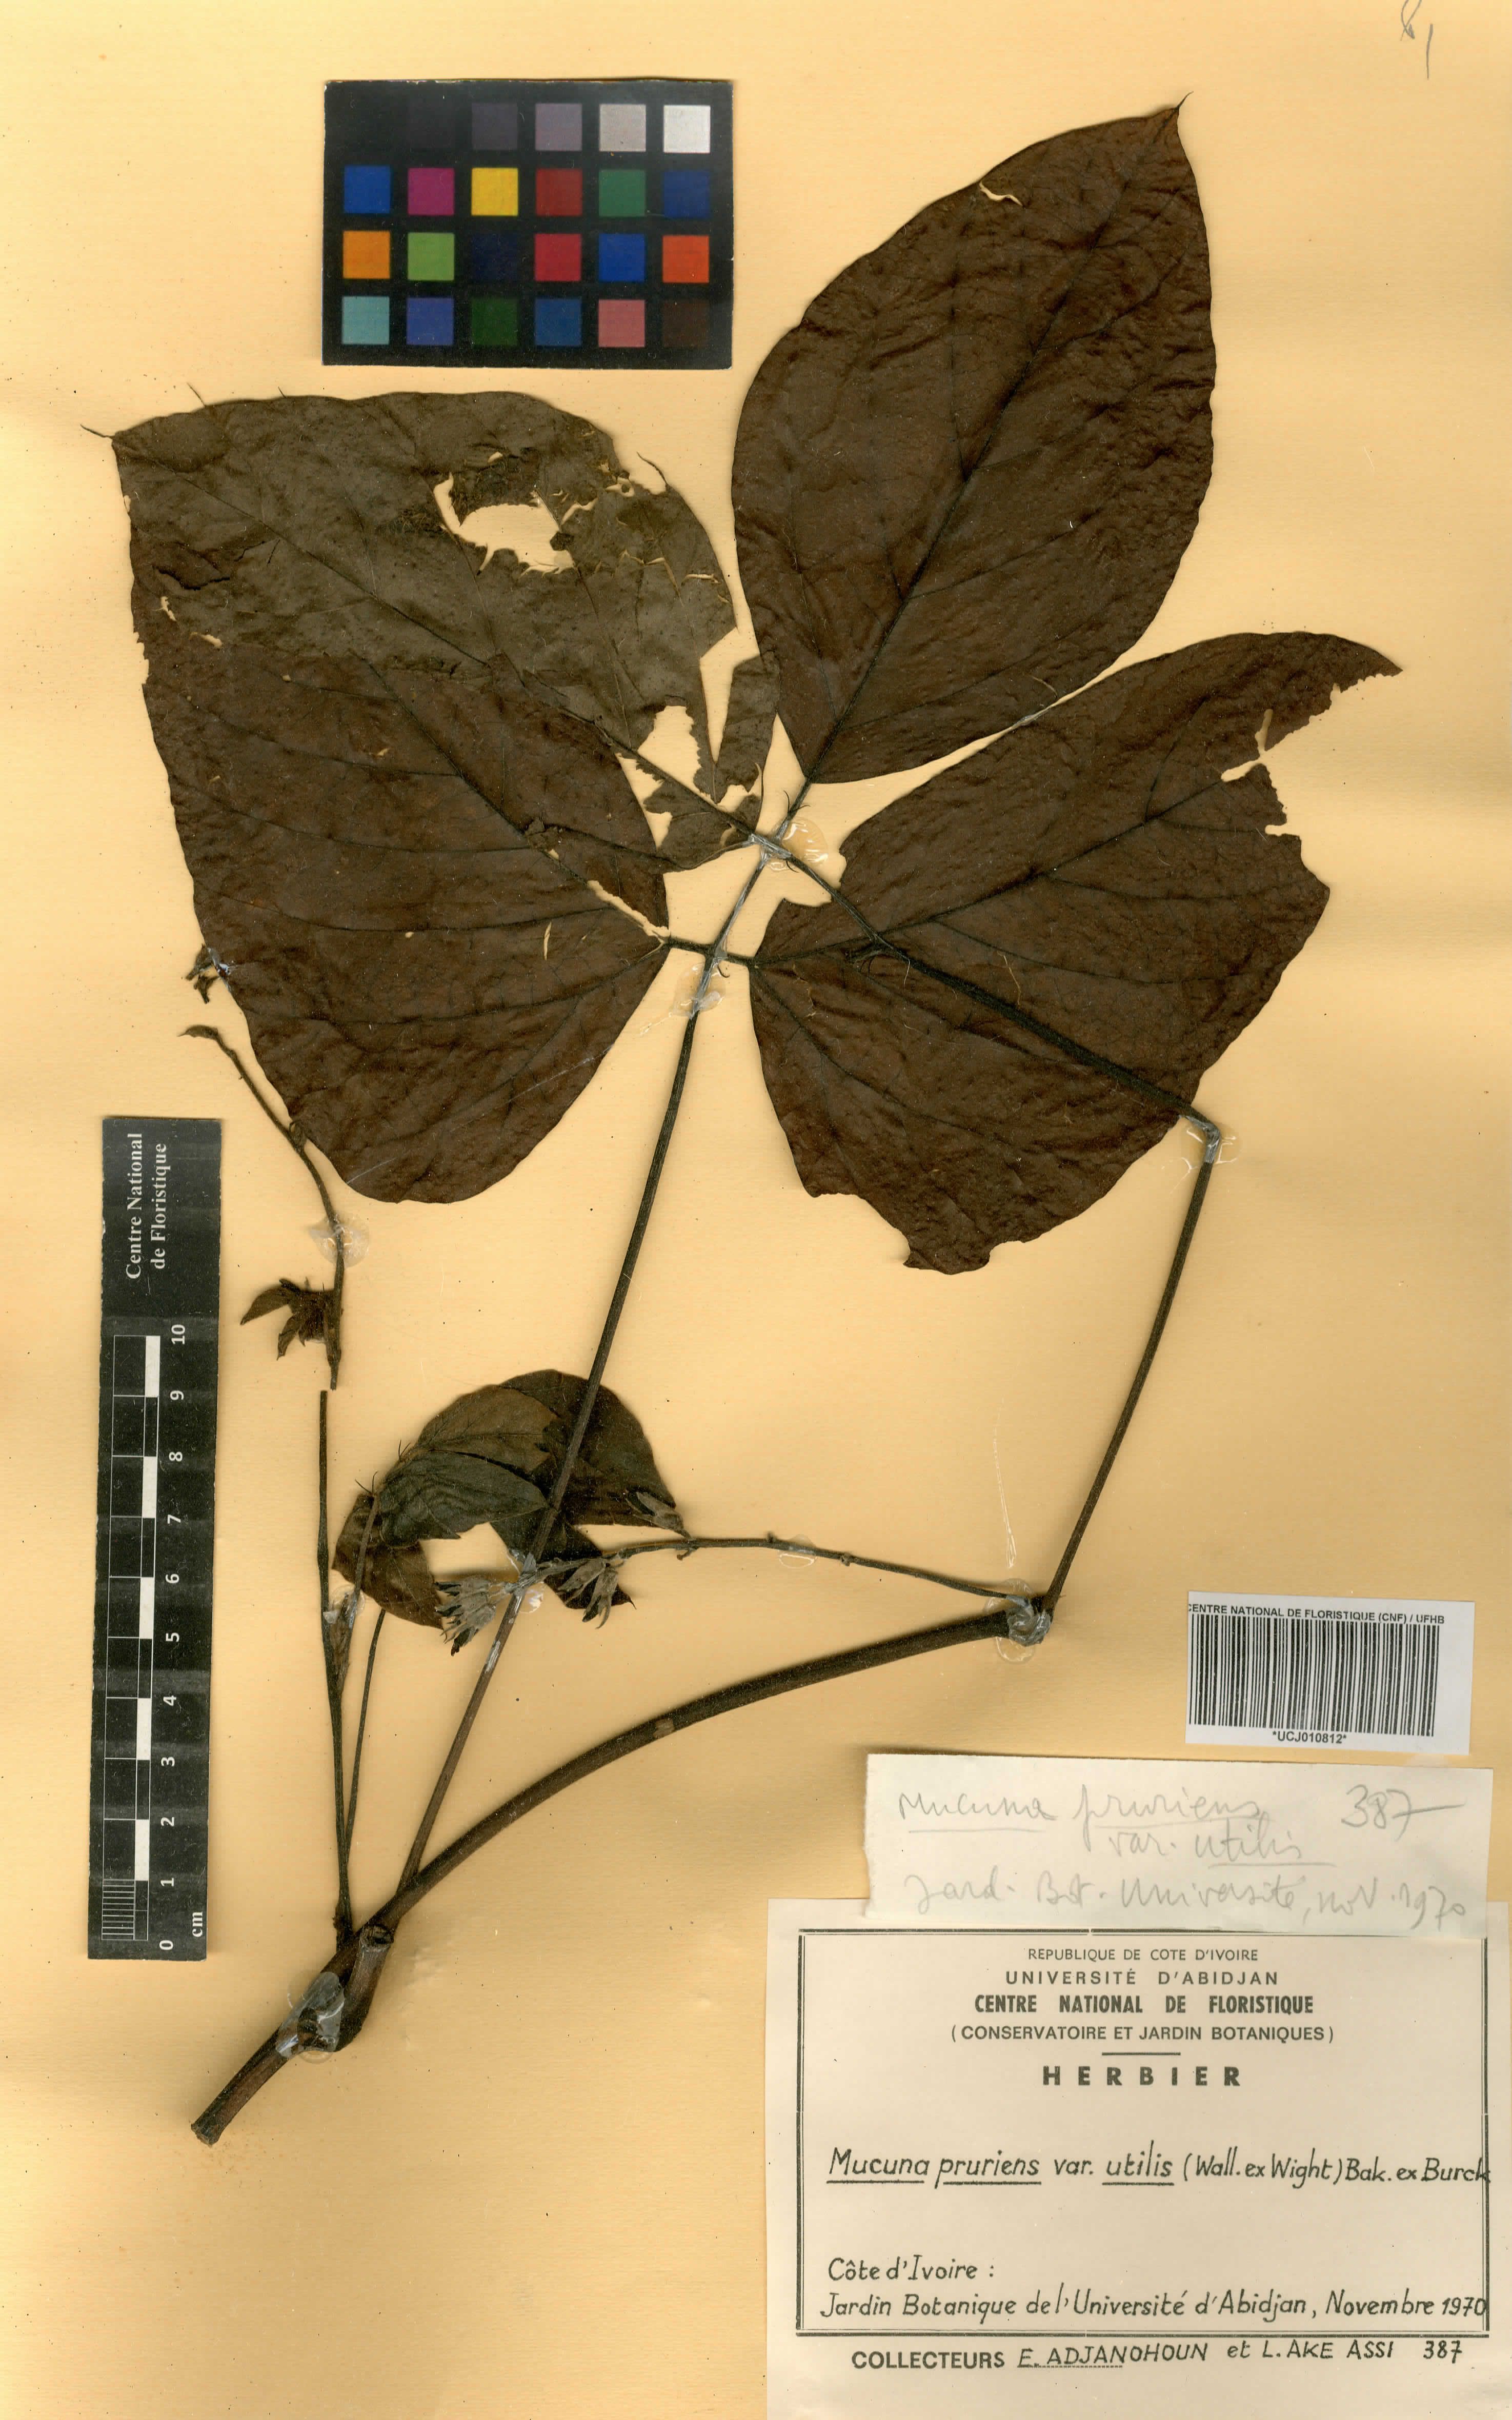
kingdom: Plantae
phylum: Tracheophyta
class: Magnoliopsida
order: Fabales
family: Fabaceae
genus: Mucuna
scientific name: Mucuna pruriens
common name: Cow-itch
